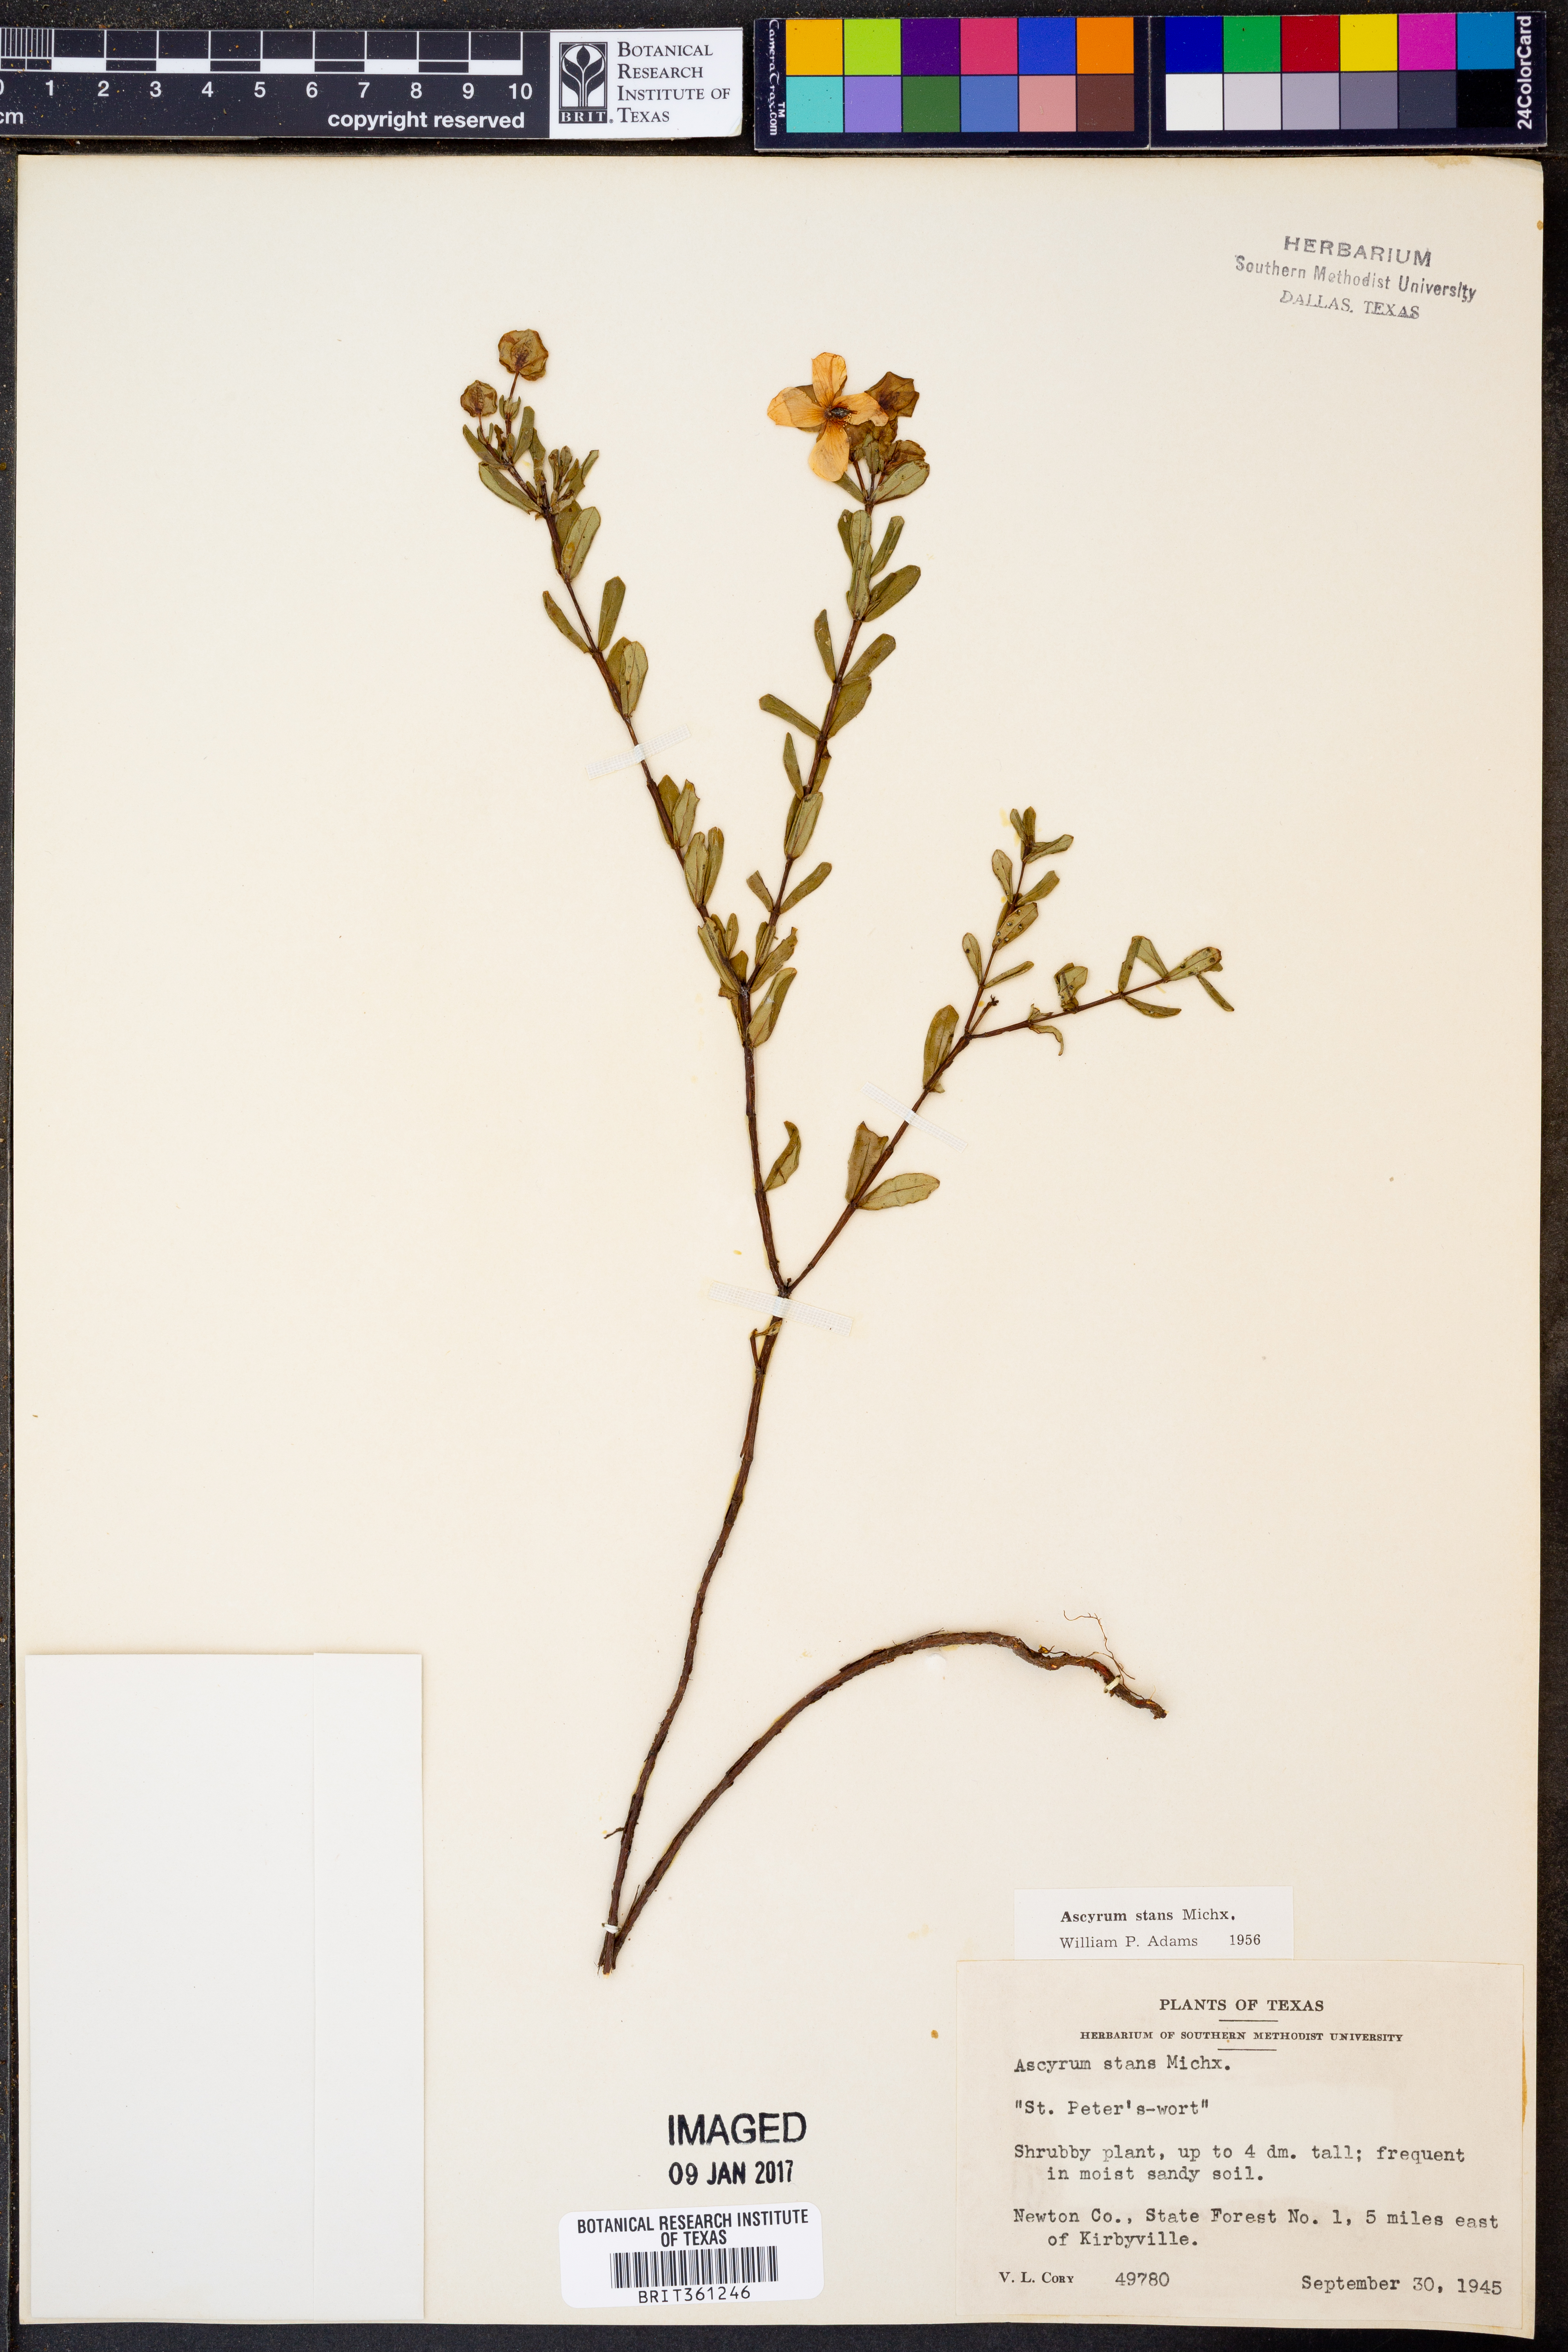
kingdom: Plantae
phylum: Tracheophyta
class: Magnoliopsida
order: Malpighiales
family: Hypericaceae
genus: Hypericum
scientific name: Hypericum crux-andreae
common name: St.-peter's-wort
